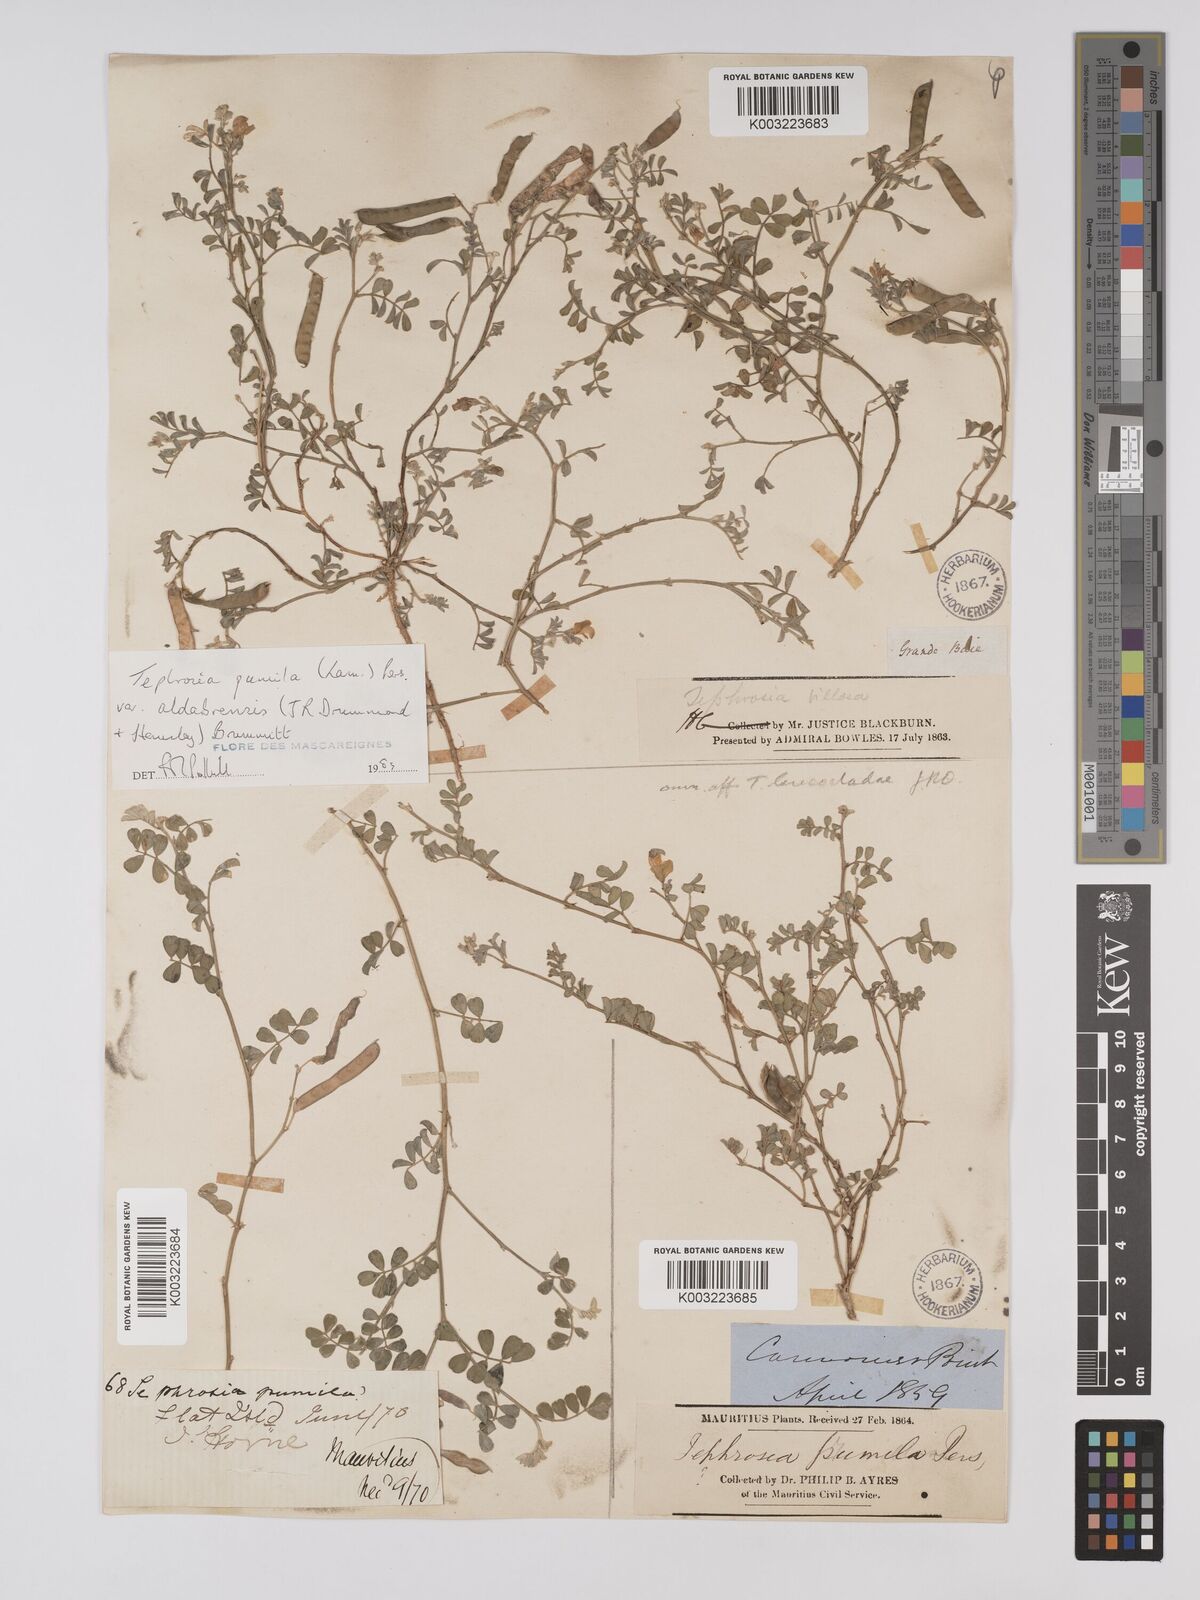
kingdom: Plantae
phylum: Tracheophyta
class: Magnoliopsida
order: Fabales
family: Fabaceae
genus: Tephrosia
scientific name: Tephrosia pumila
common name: Indigo sauvage
